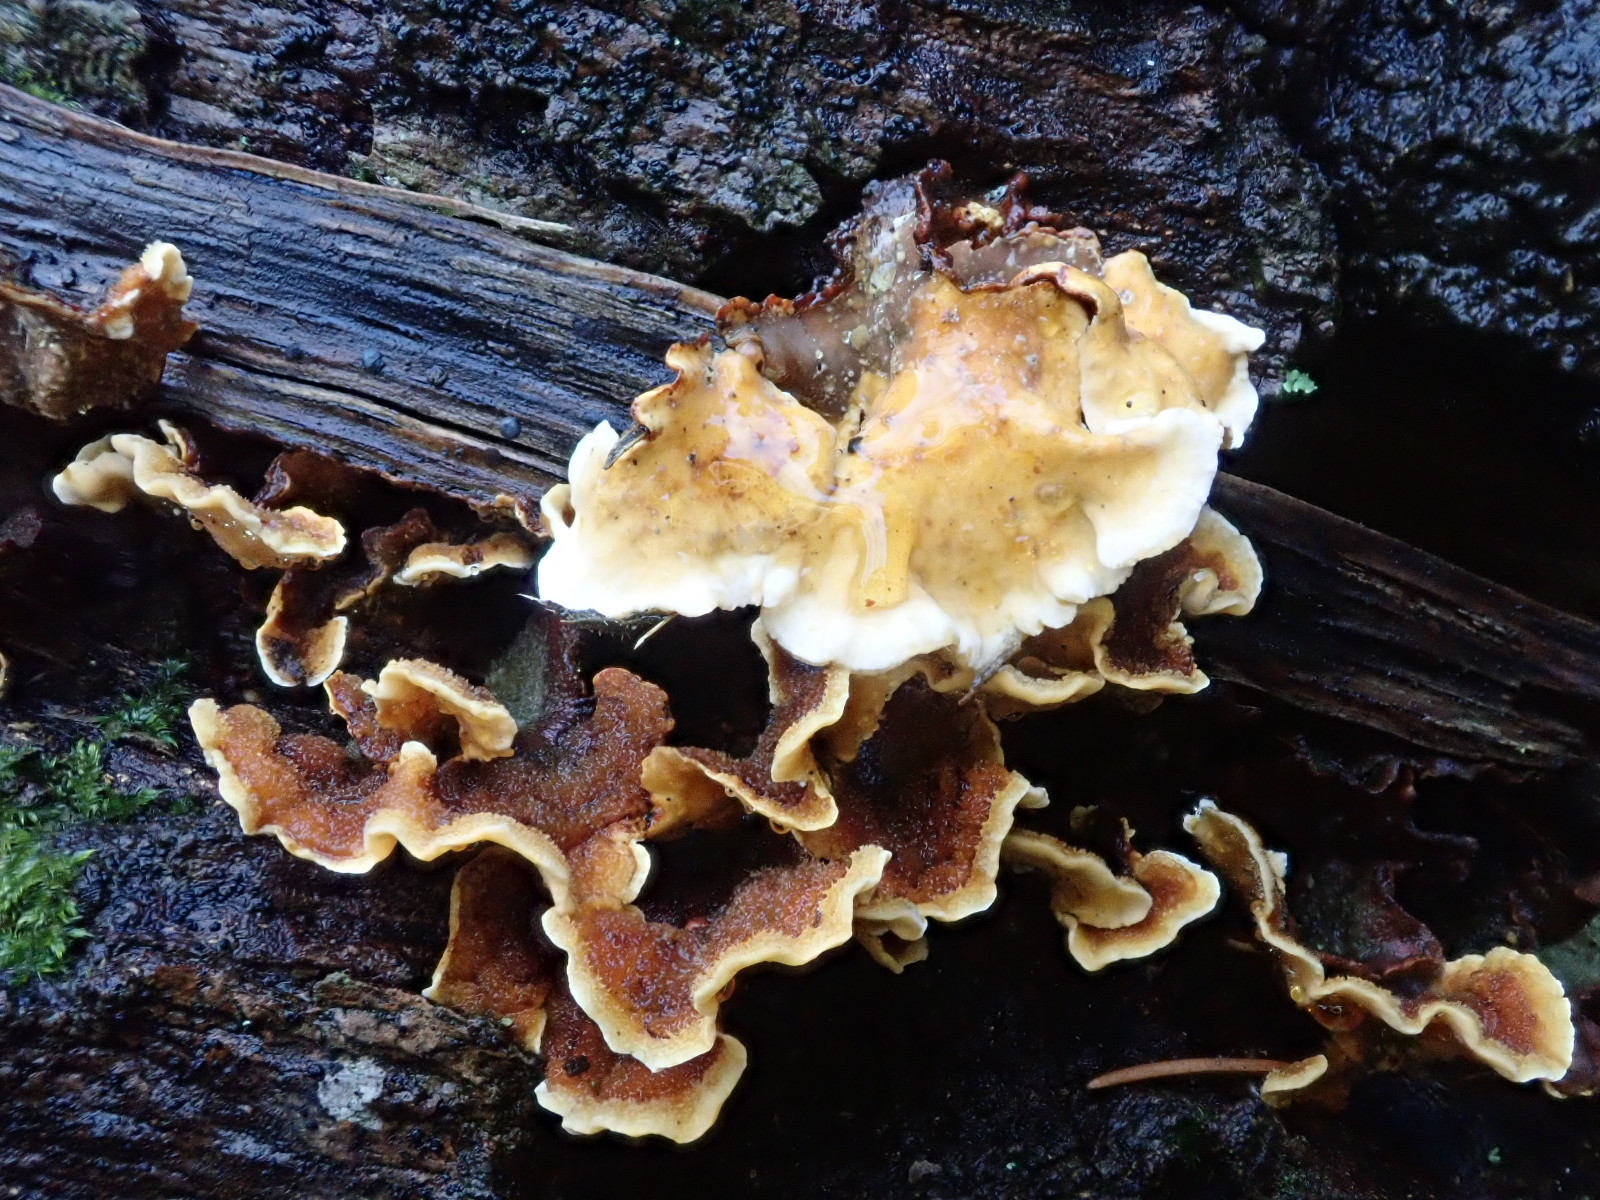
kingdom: Fungi
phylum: Basidiomycota
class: Agaricomycetes
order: Russulales
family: Stereaceae
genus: Stereum
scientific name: Stereum hirsutum
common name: håret lædersvamp
